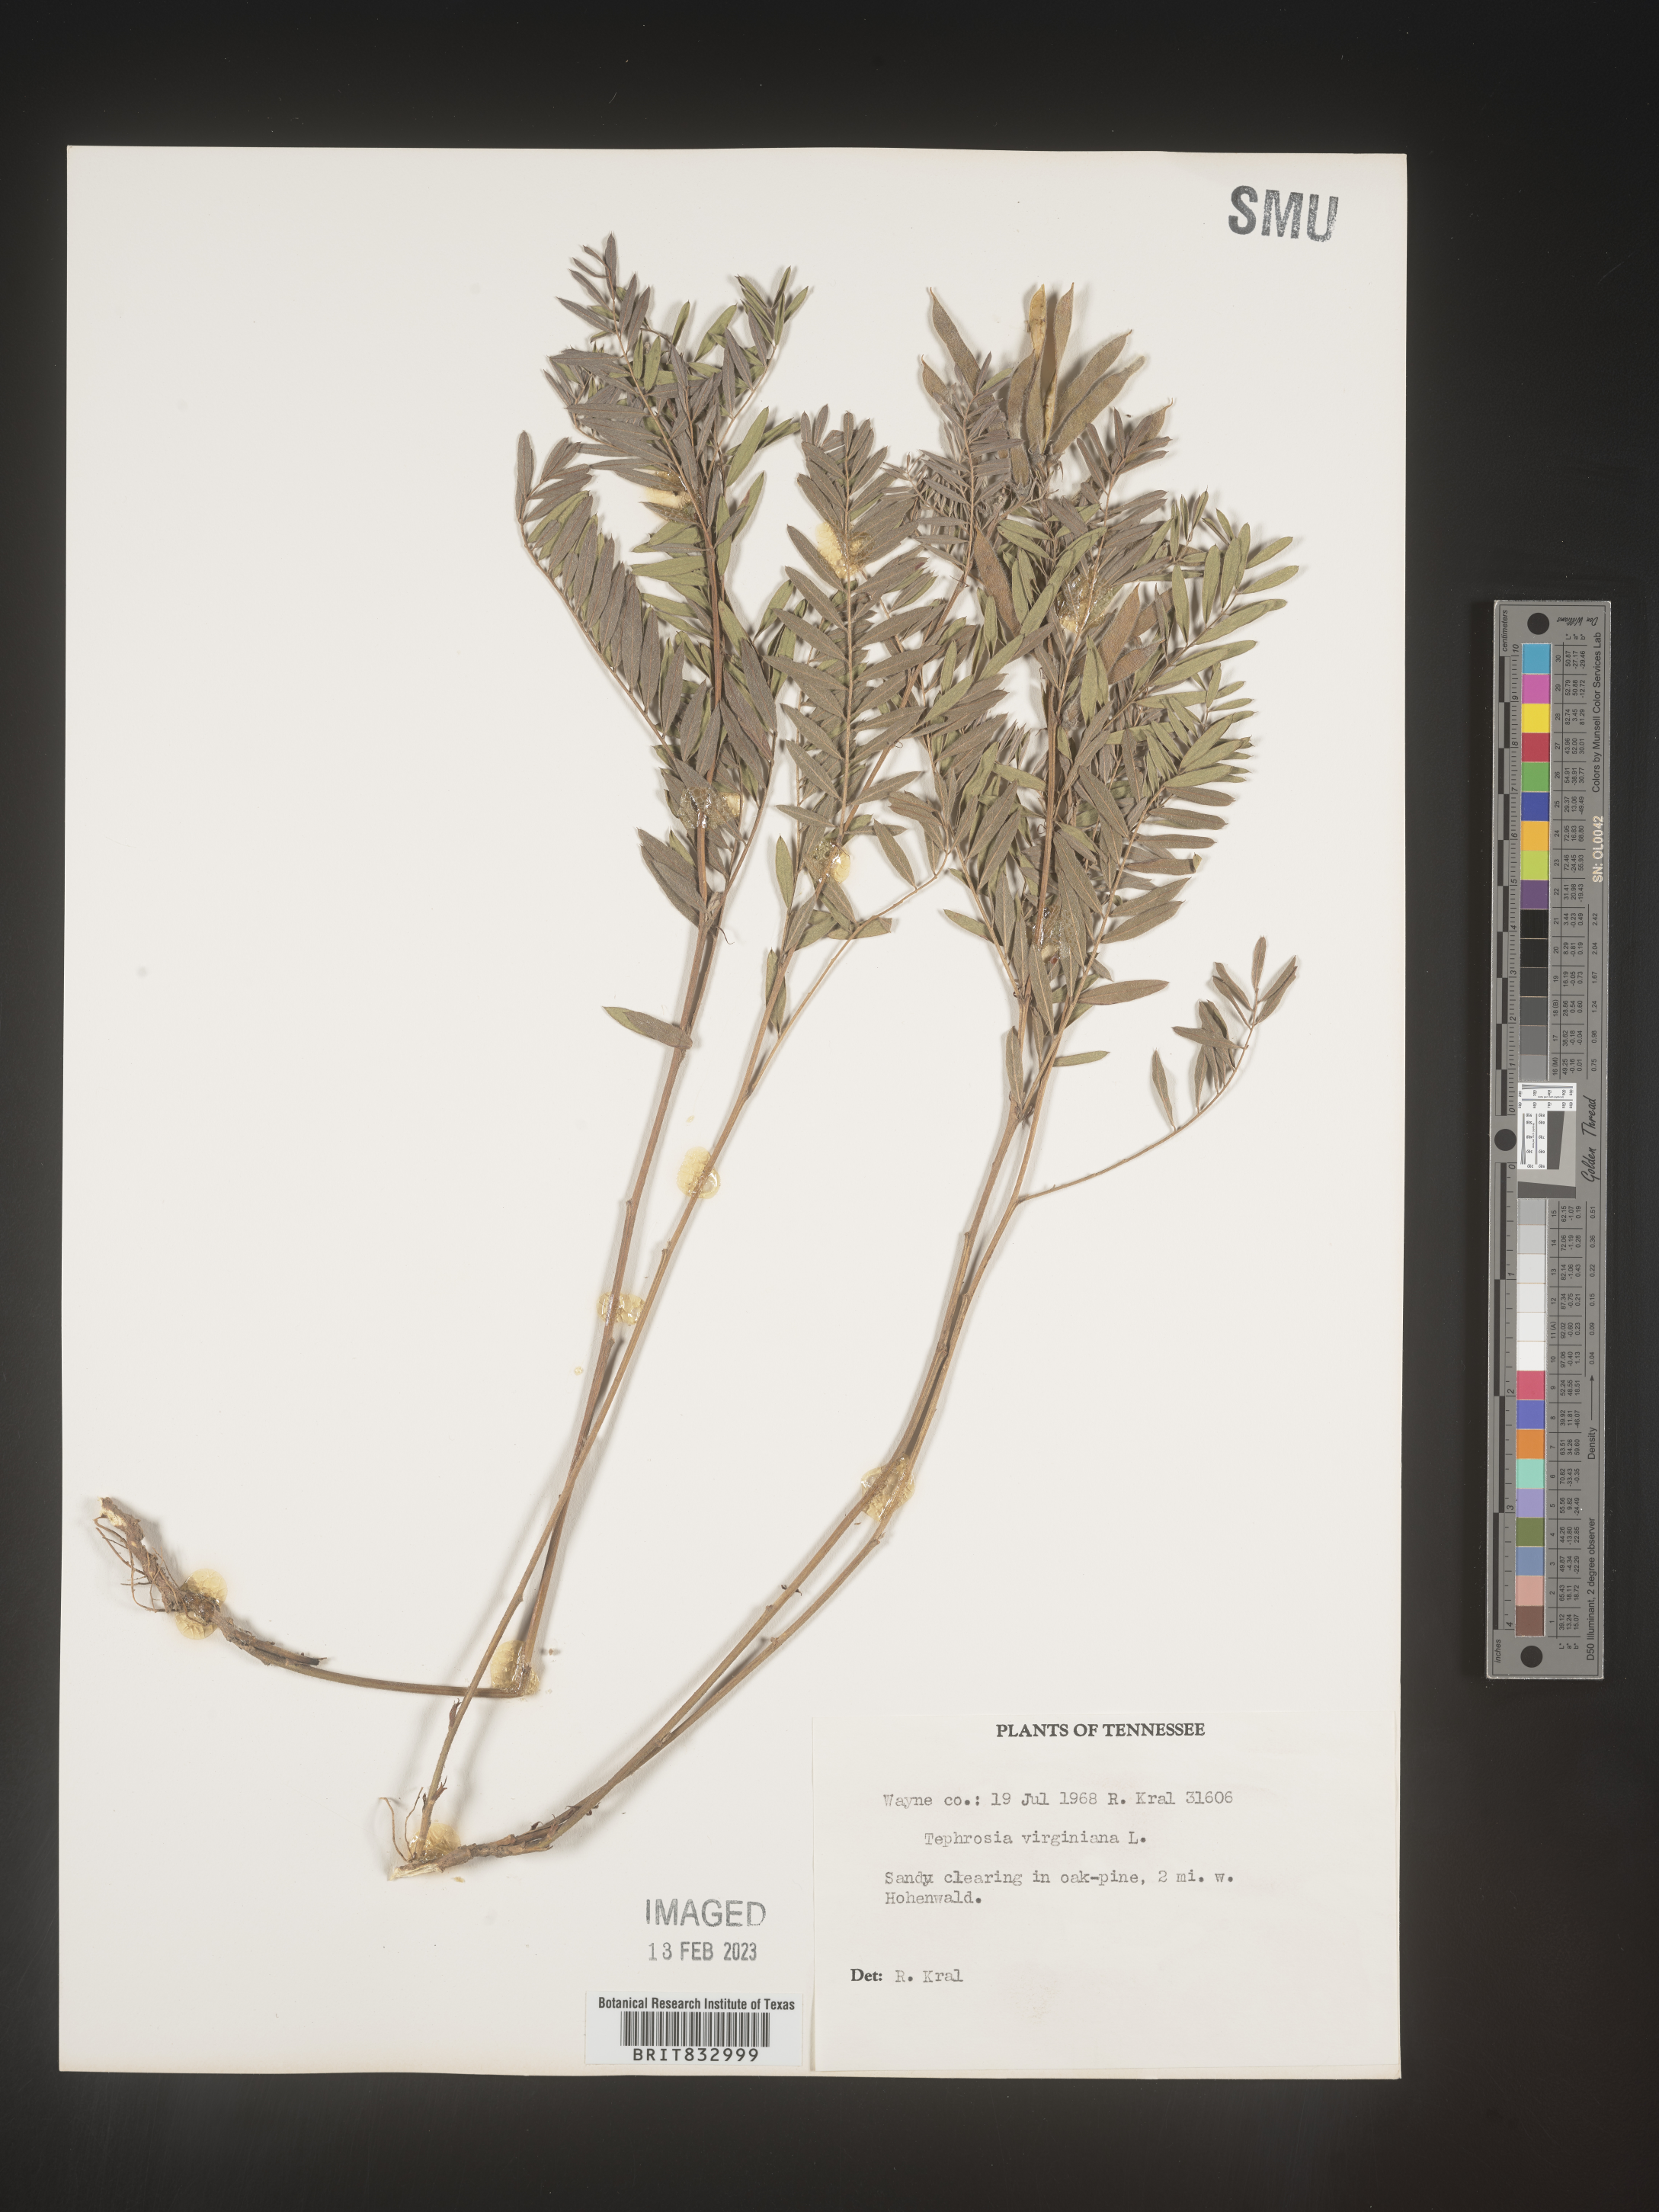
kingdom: Plantae
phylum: Tracheophyta
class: Magnoliopsida
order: Fabales
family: Fabaceae
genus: Tephrosia
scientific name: Tephrosia virginiana
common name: Rabbit-pea
